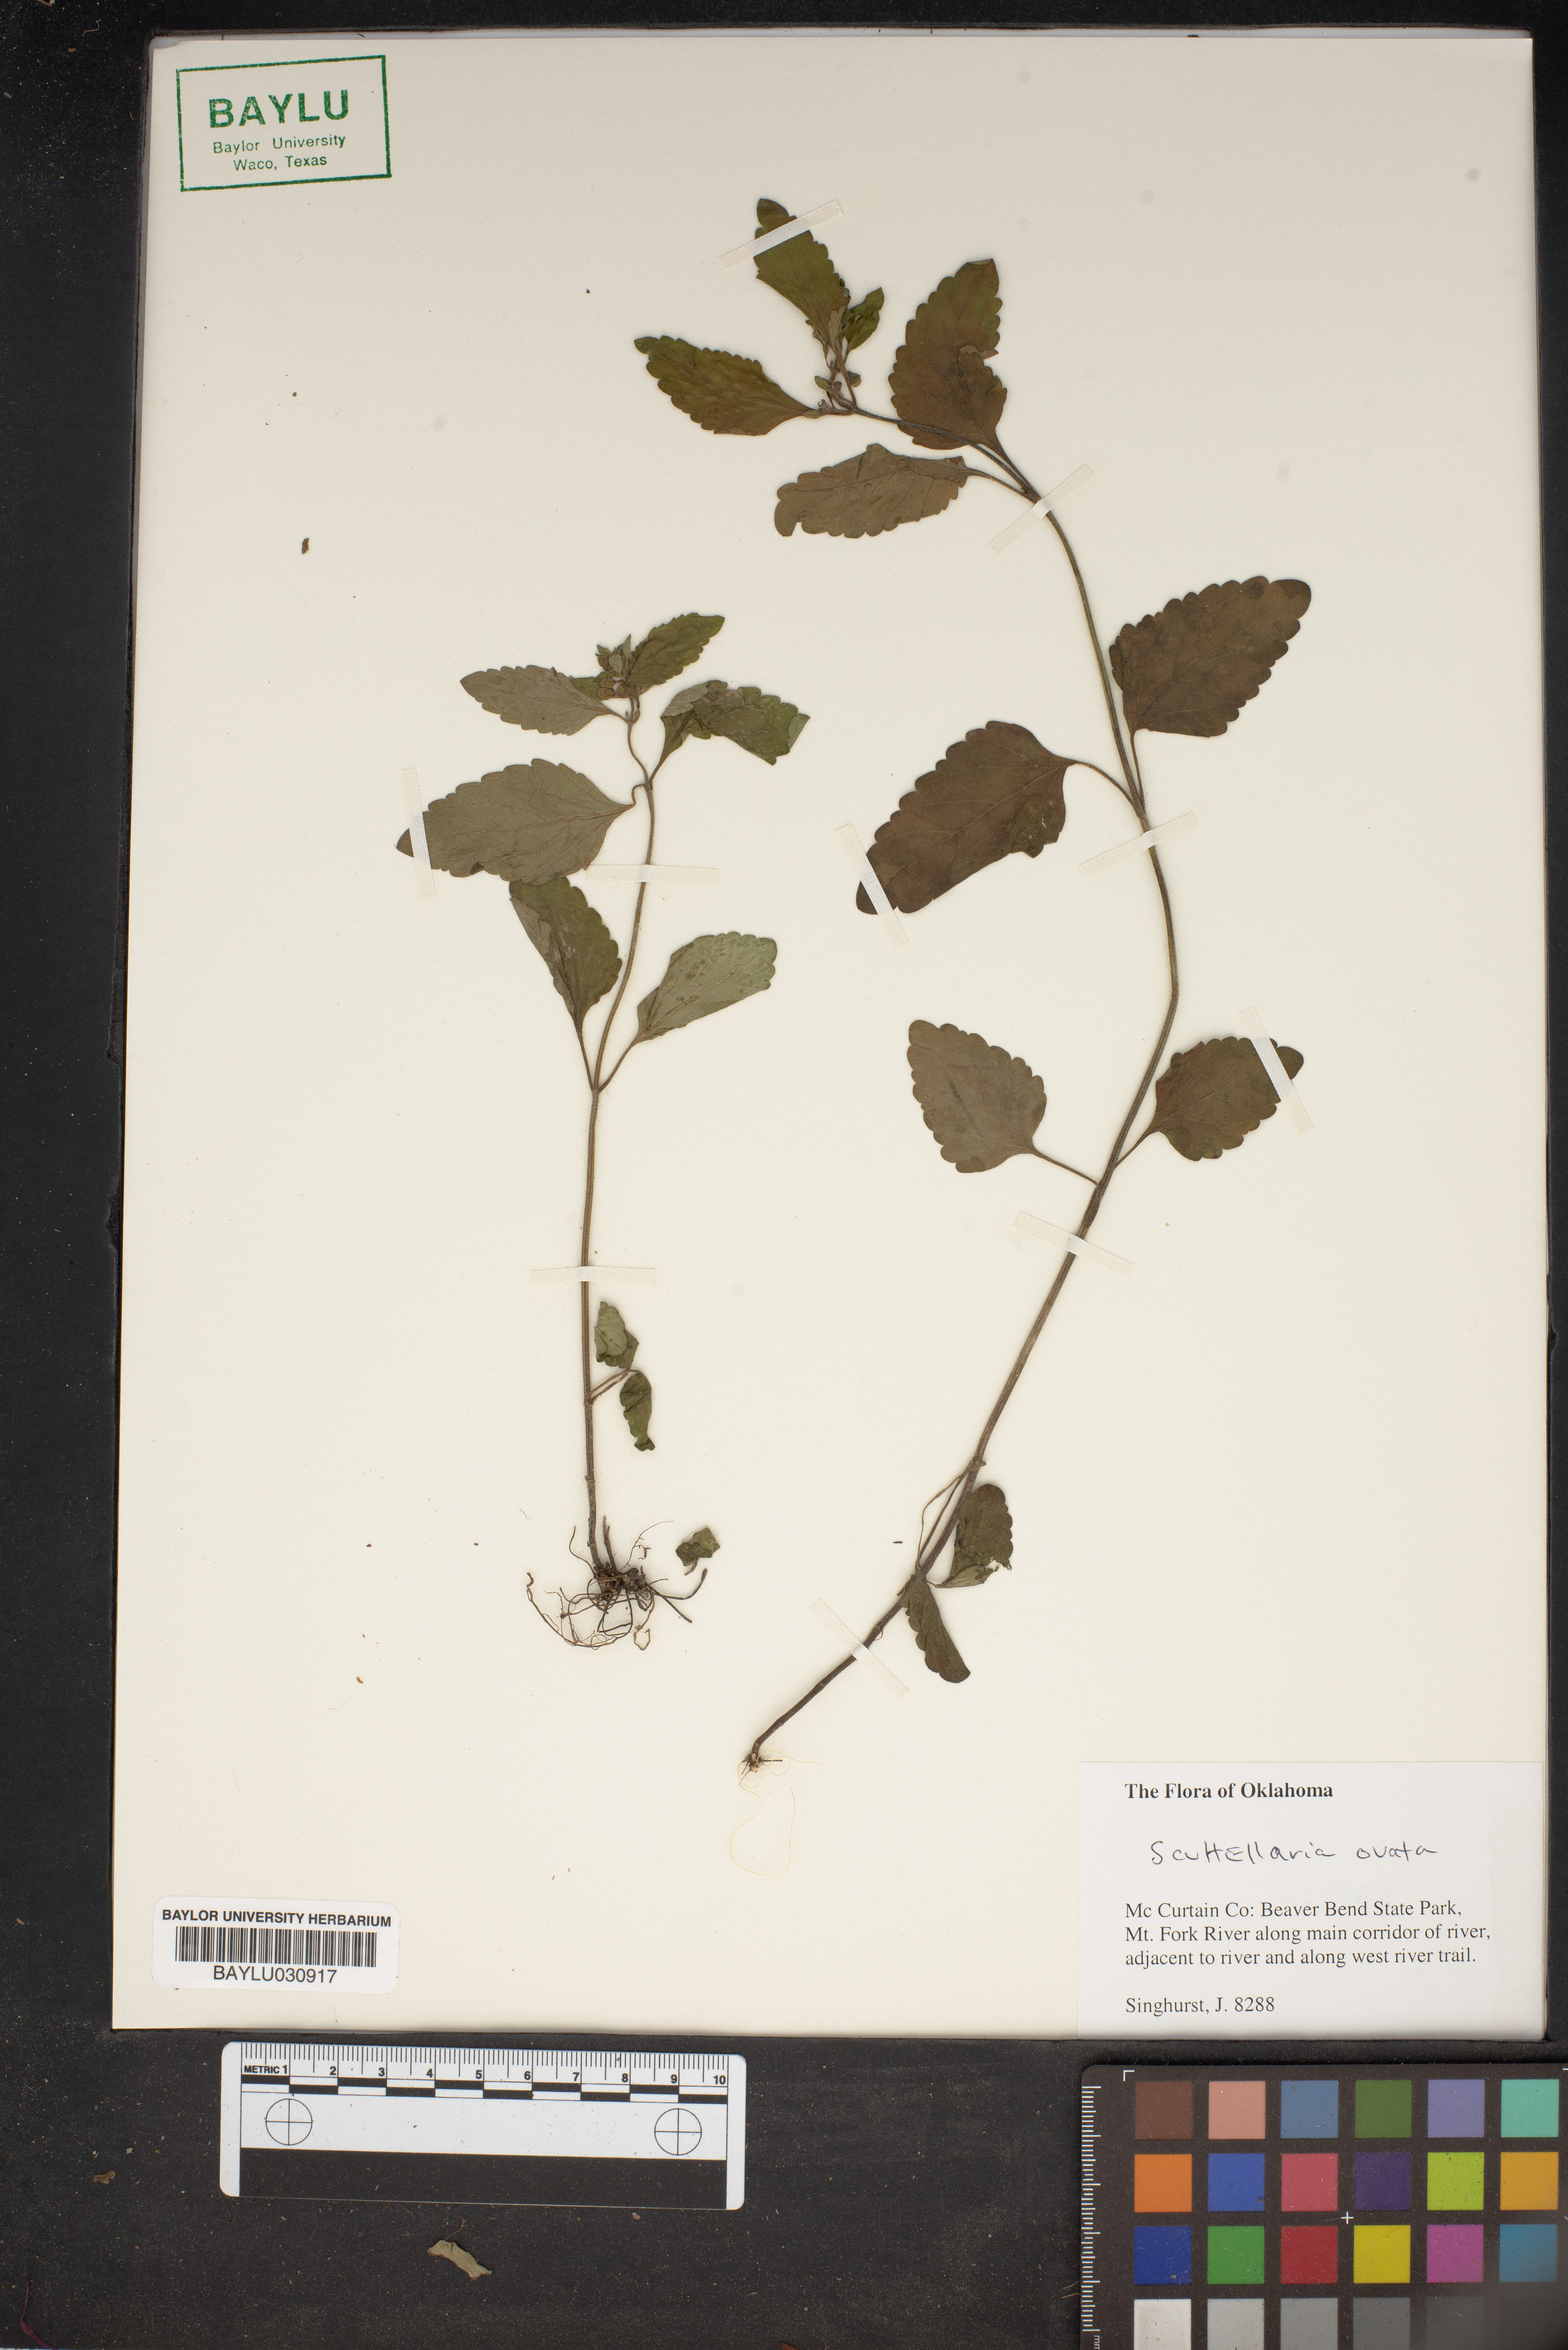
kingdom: Plantae
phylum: Tracheophyta
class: Magnoliopsida
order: Lamiales
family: Lamiaceae
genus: Scutellaria
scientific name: Scutellaria ovata
